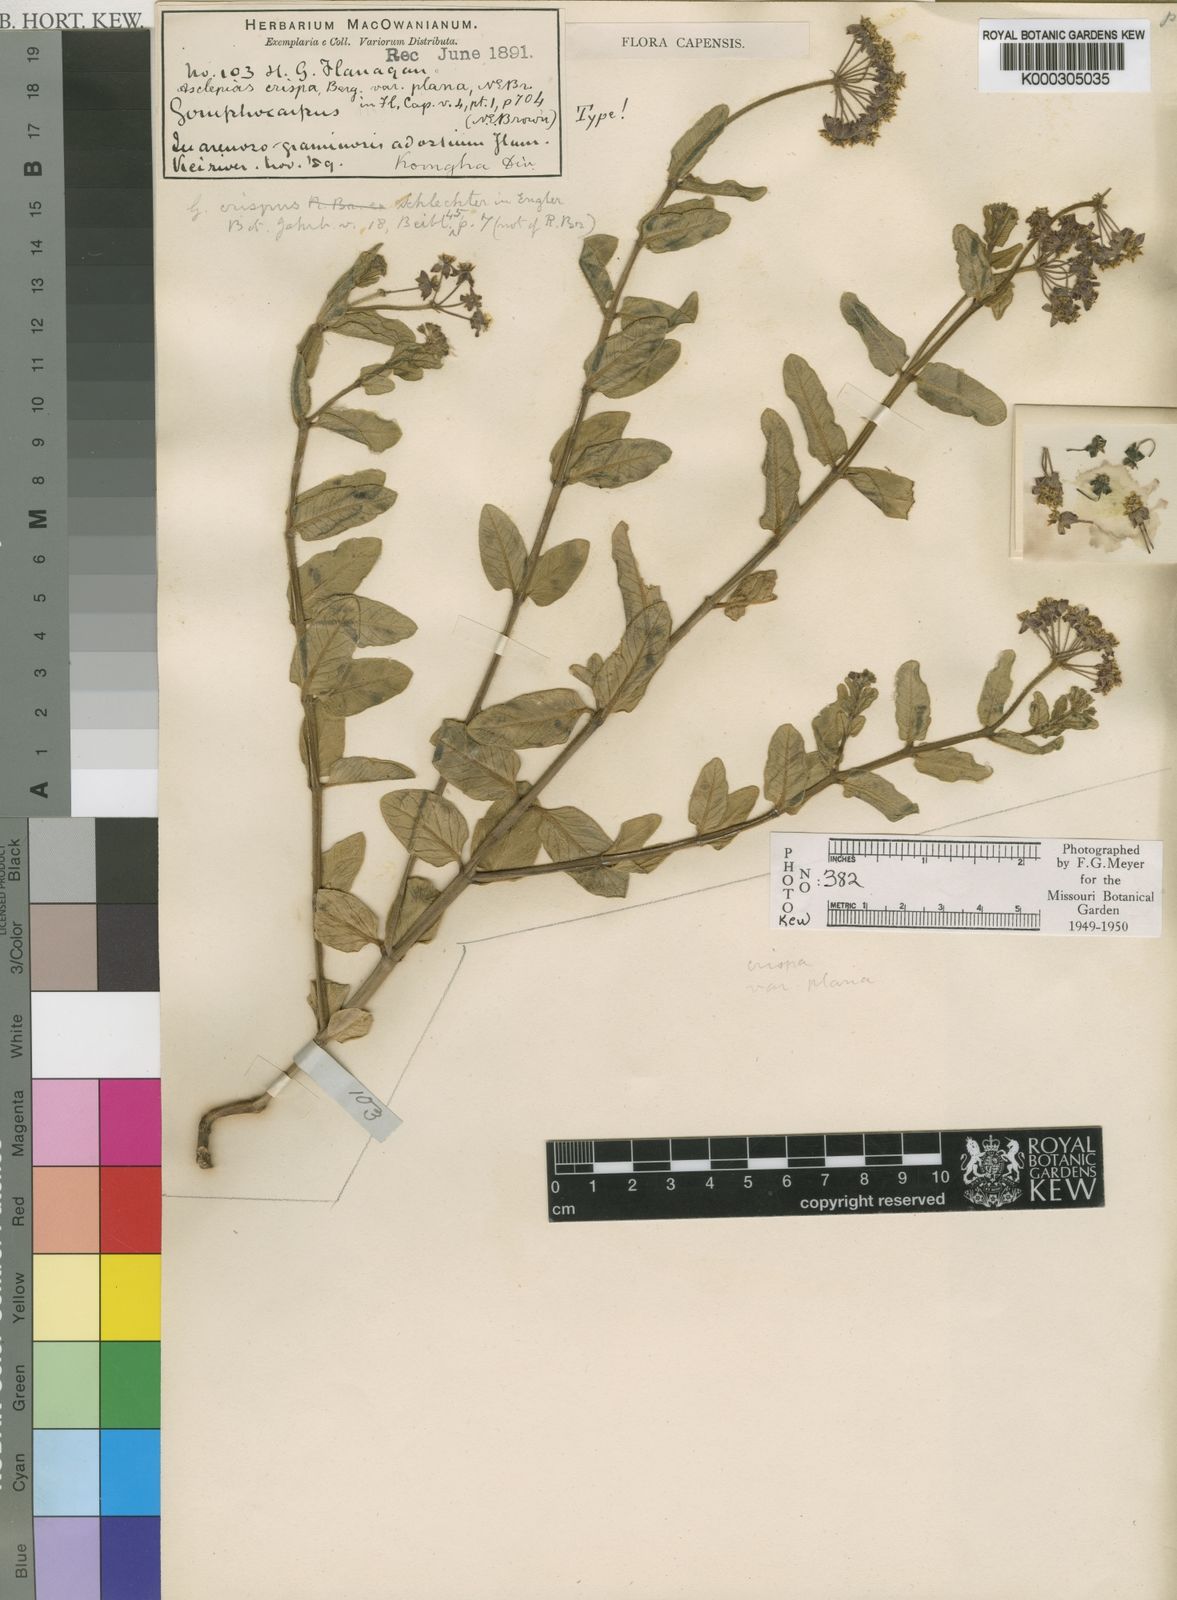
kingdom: Plantae
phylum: Tracheophyta
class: Magnoliopsida
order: Gentianales
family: Apocynaceae
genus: Asclepias
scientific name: Asclepias crispa
